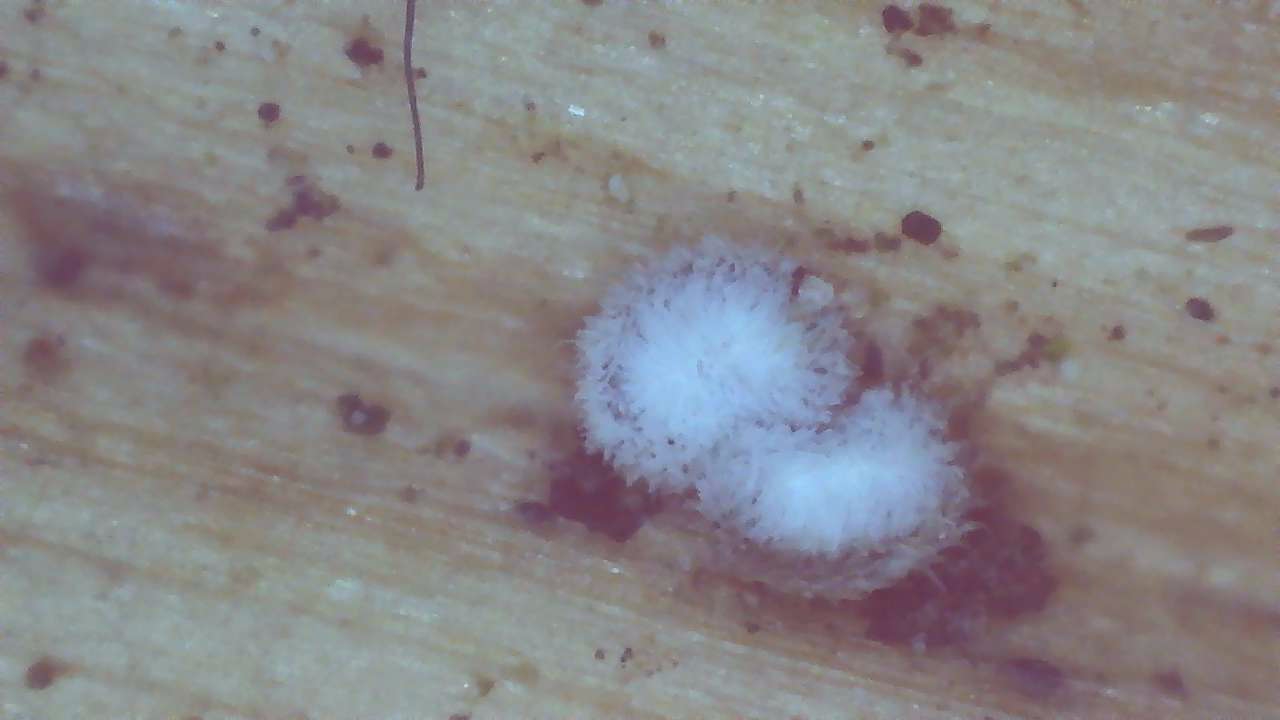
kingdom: Fungi
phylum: Ascomycota
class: Leotiomycetes
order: Helotiales
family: Lachnaceae
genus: Lachnella
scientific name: Lachnella
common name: frynserede
